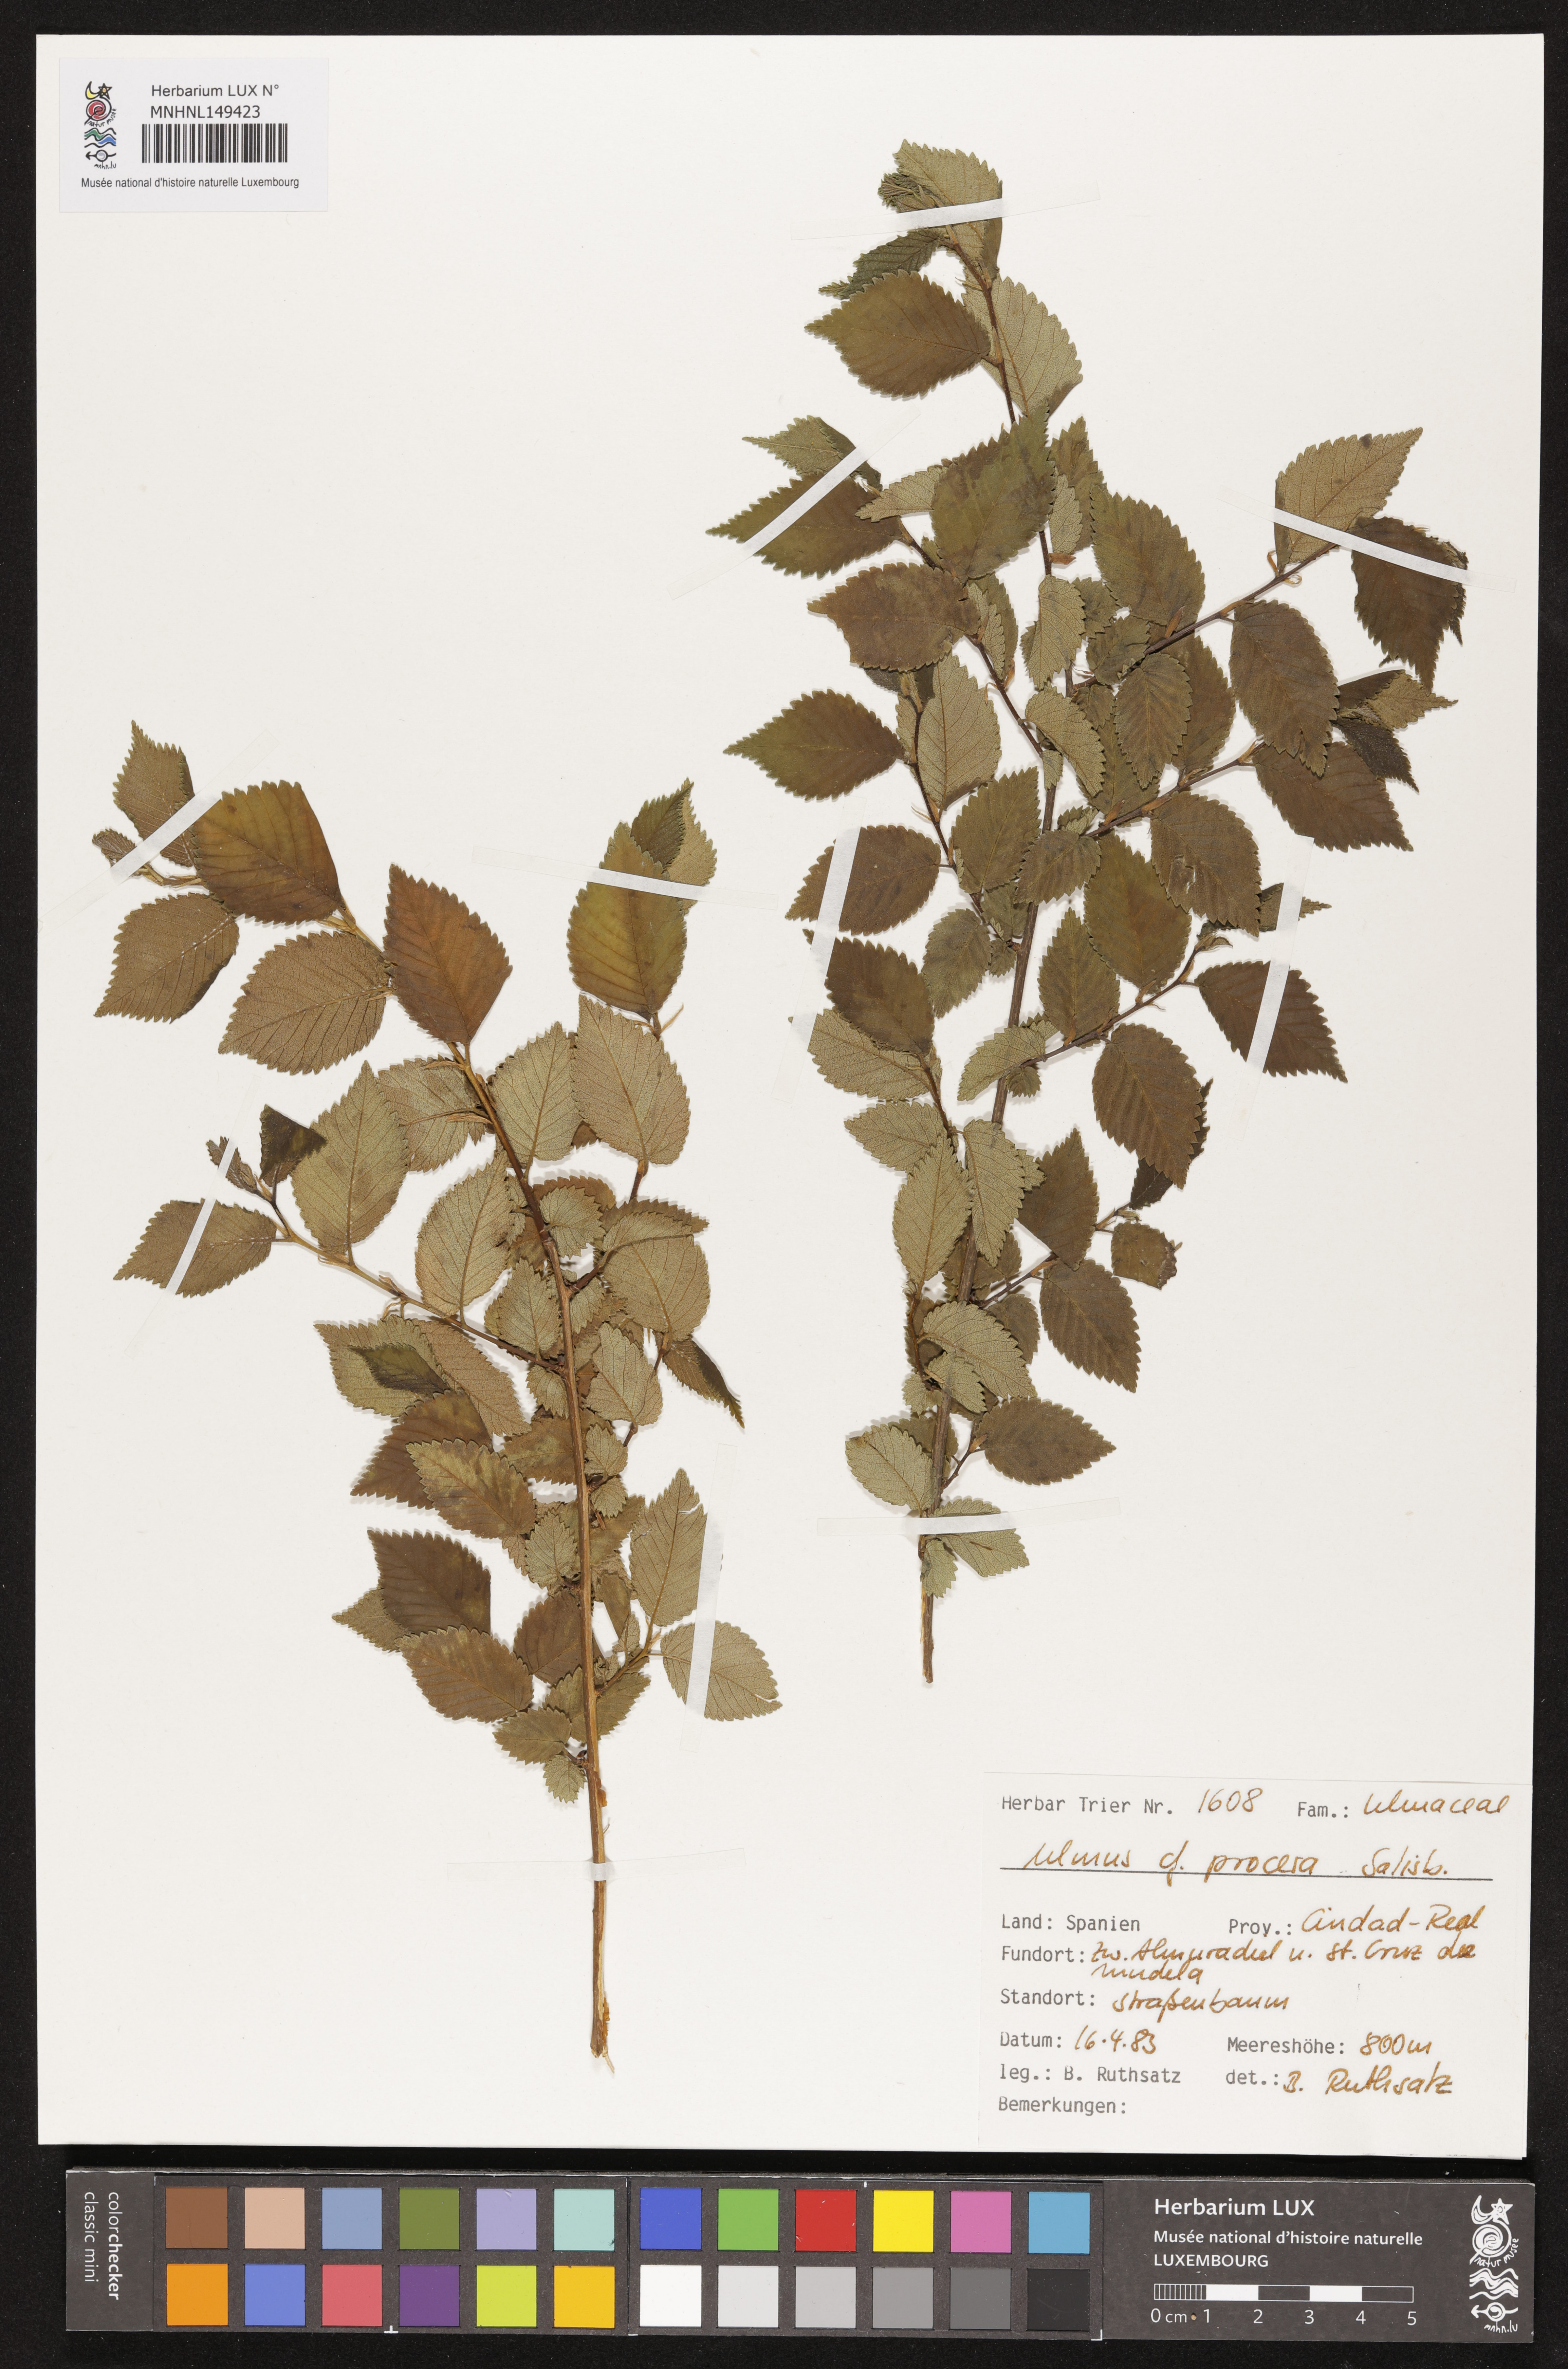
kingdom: Plantae
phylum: Tracheophyta
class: Magnoliopsida
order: Rosales
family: Ulmaceae
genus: Ulmus
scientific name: Ulmus minor
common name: Small-leaved elm
